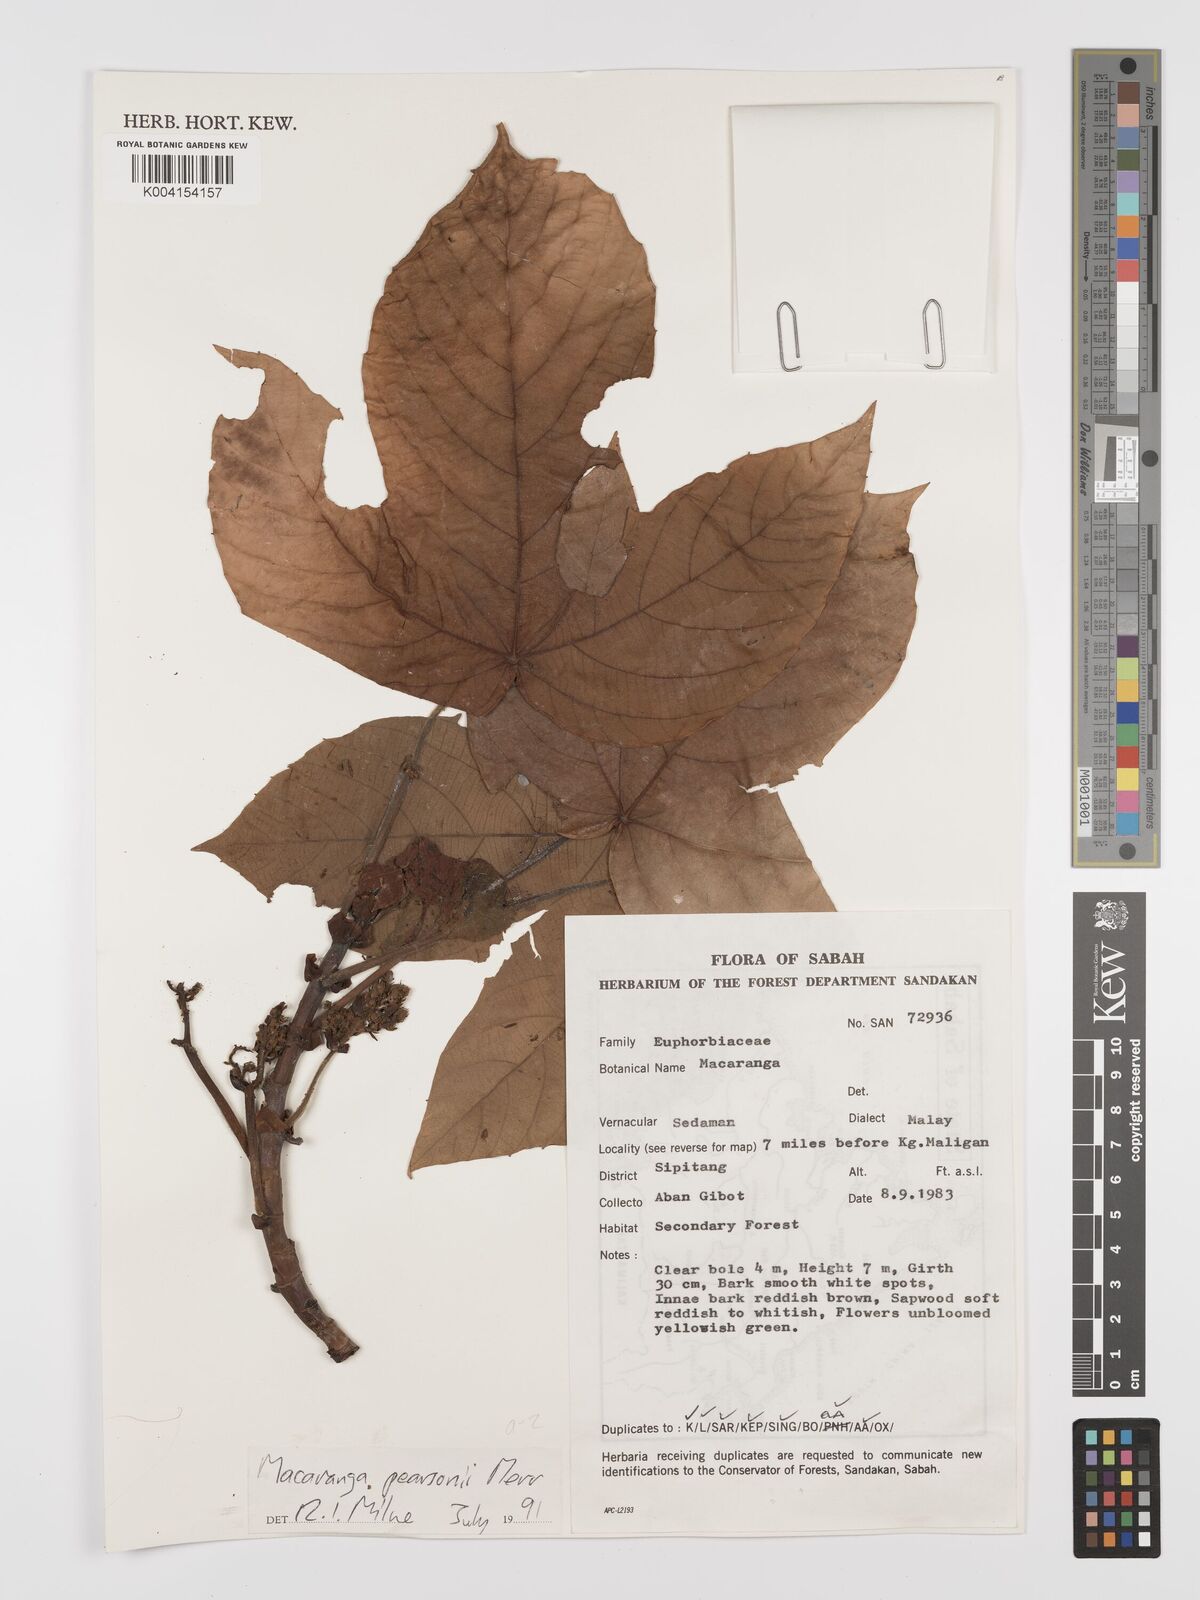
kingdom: Plantae
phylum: Tracheophyta
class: Magnoliopsida
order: Malpighiales
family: Euphorbiaceae
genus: Macaranga
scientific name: Macaranga pearsonii
